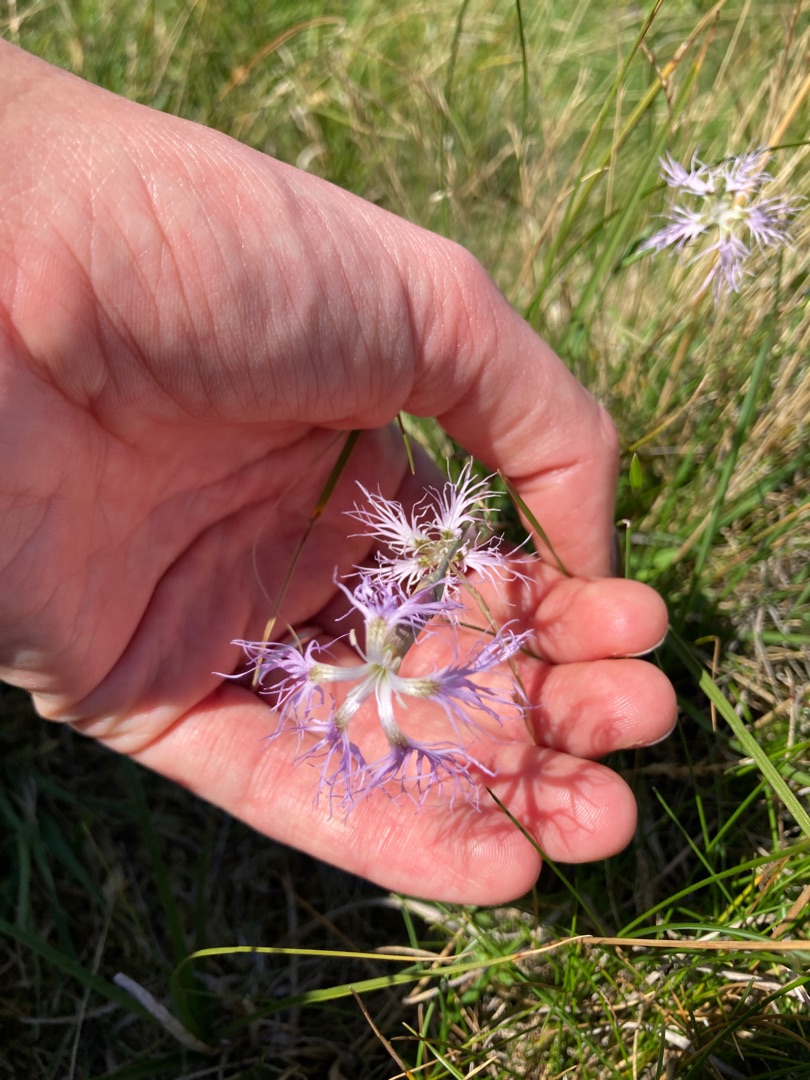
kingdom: Plantae
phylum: Tracheophyta
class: Magnoliopsida
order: Caryophyllales
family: Caryophyllaceae
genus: Dianthus
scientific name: Dianthus superbus
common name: Strand-nellike
